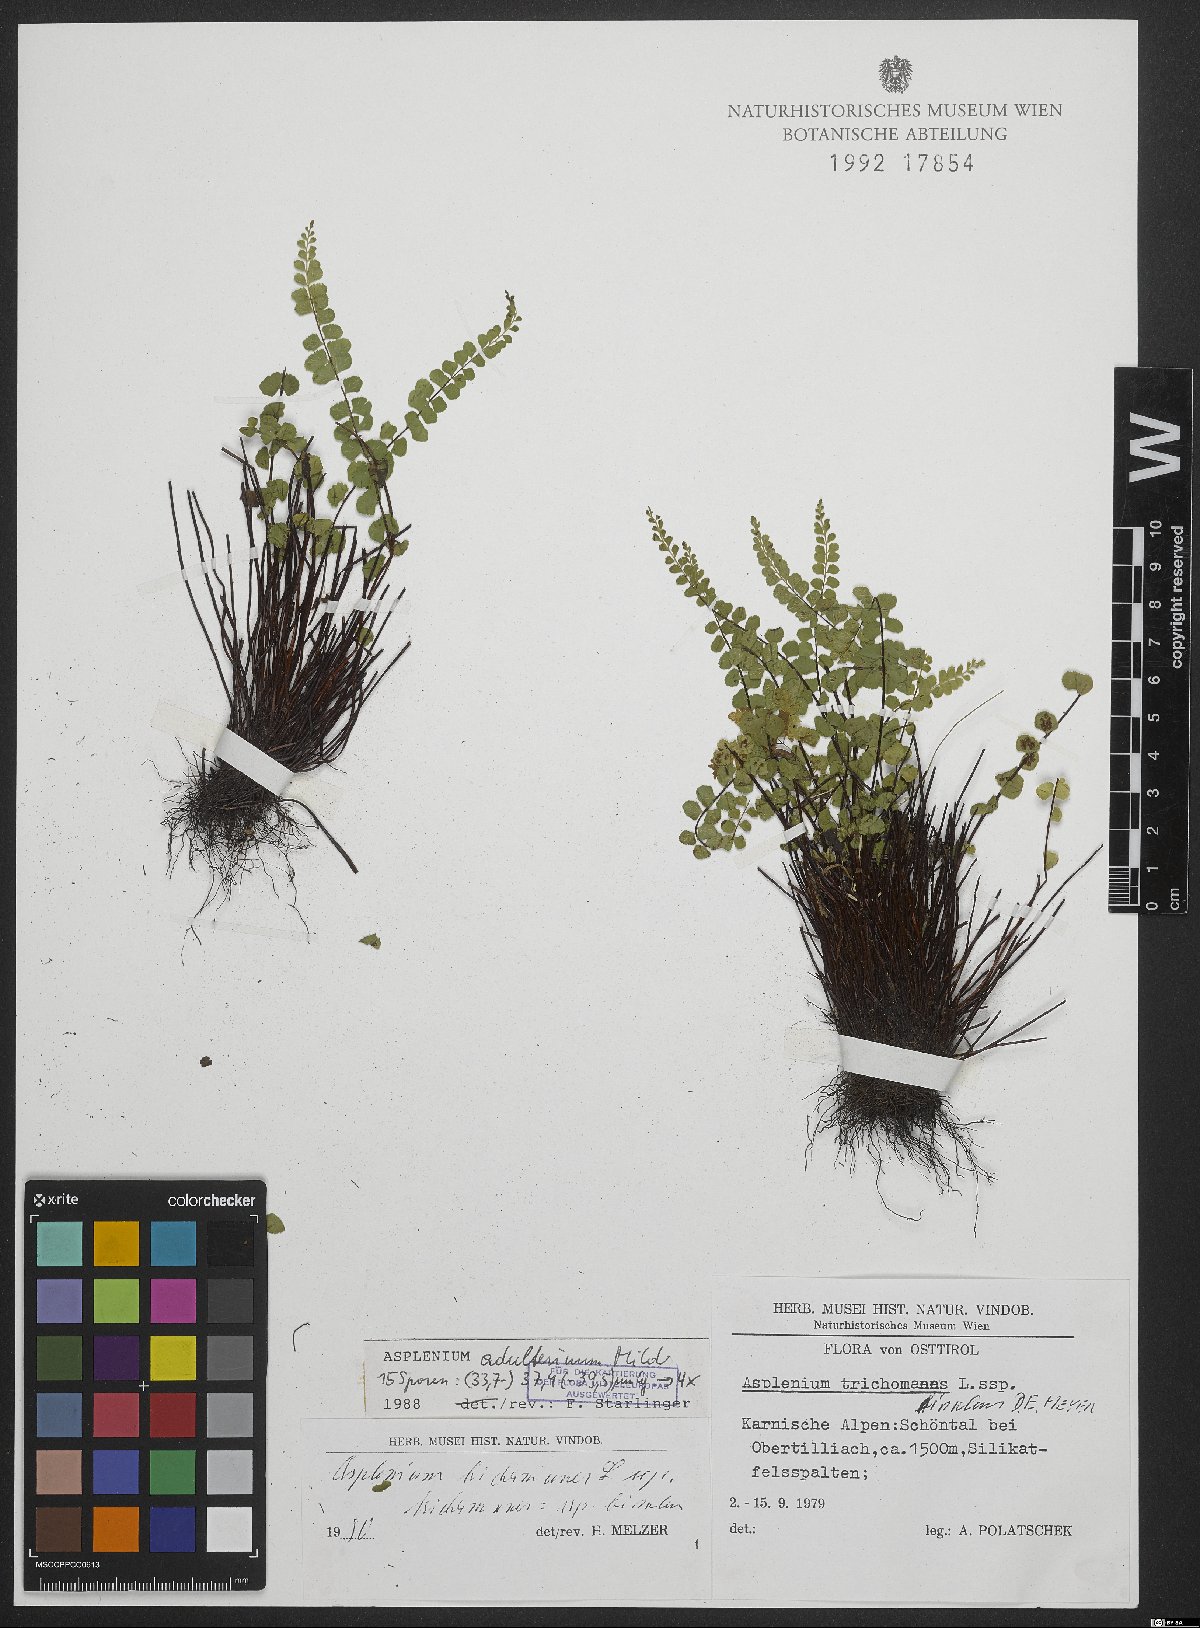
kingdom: Plantae
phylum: Tracheophyta
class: Polypodiopsida
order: Polypodiales
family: Aspleniaceae
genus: Asplenium
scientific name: Asplenium trichomanes
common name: Maidenhair spleenwort
